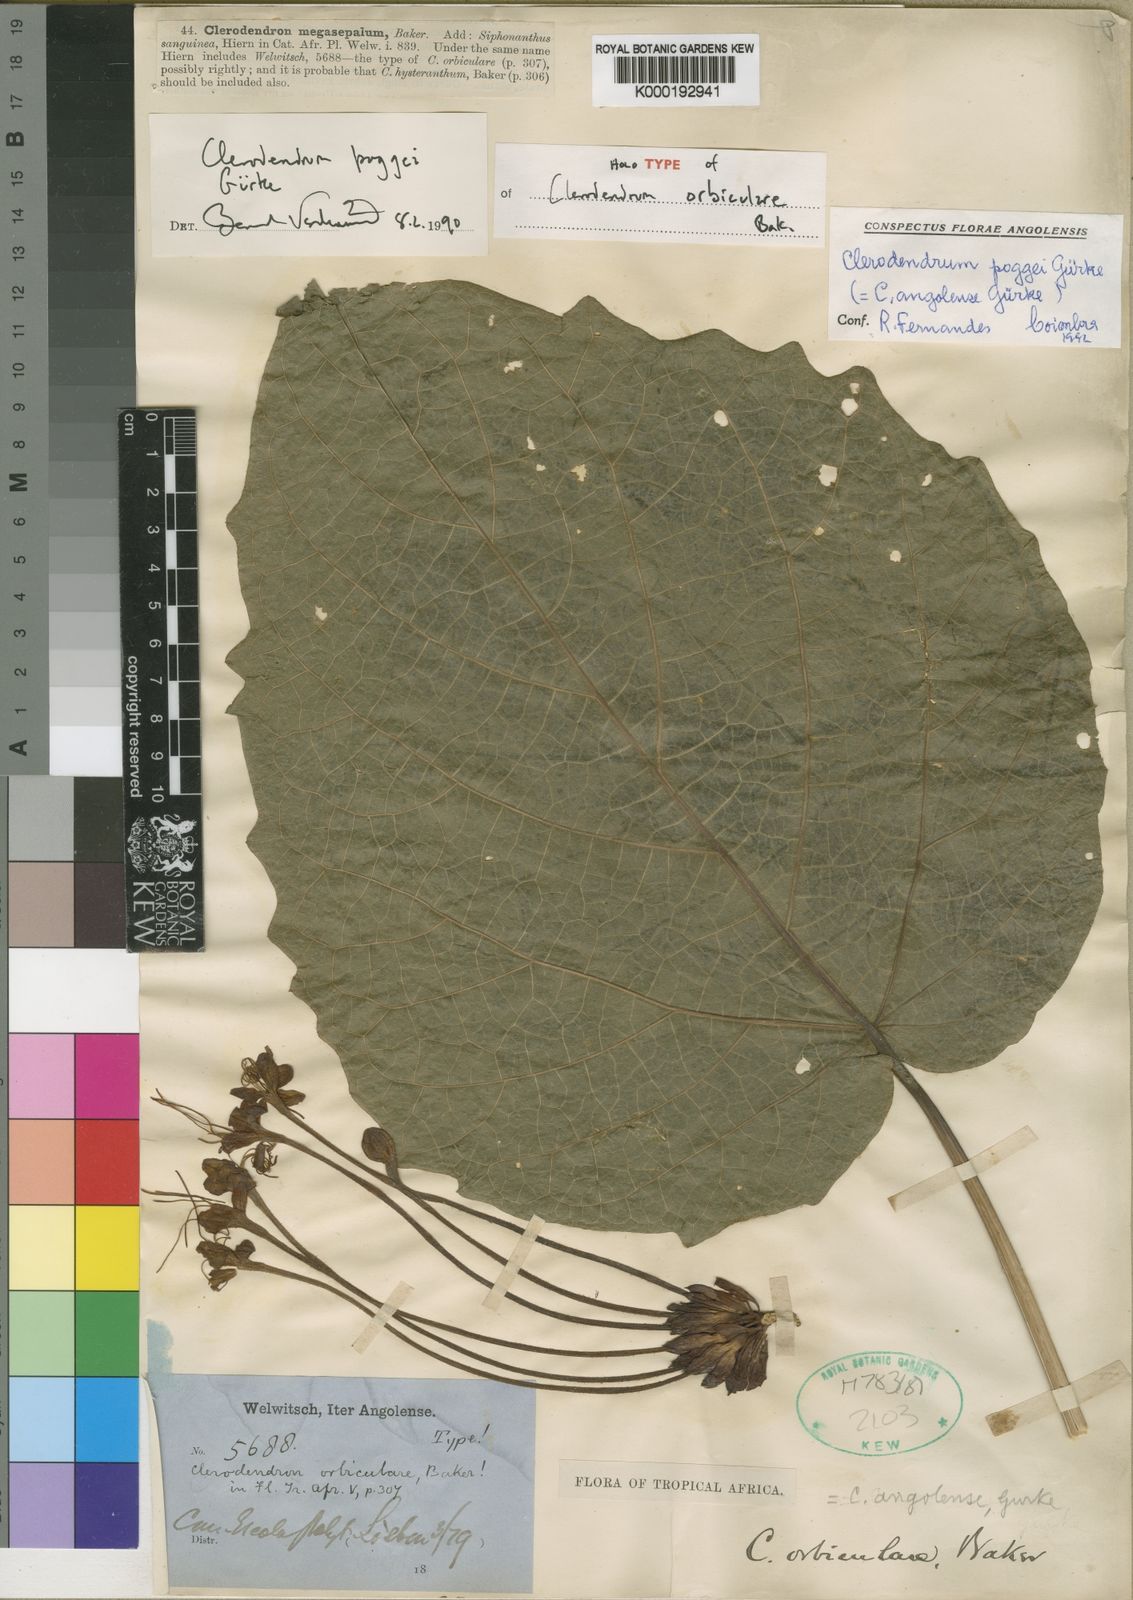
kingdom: Plantae
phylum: Tracheophyta
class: Magnoliopsida
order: Lamiales
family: Lamiaceae
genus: Clerodendrum
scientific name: Clerodendrum
